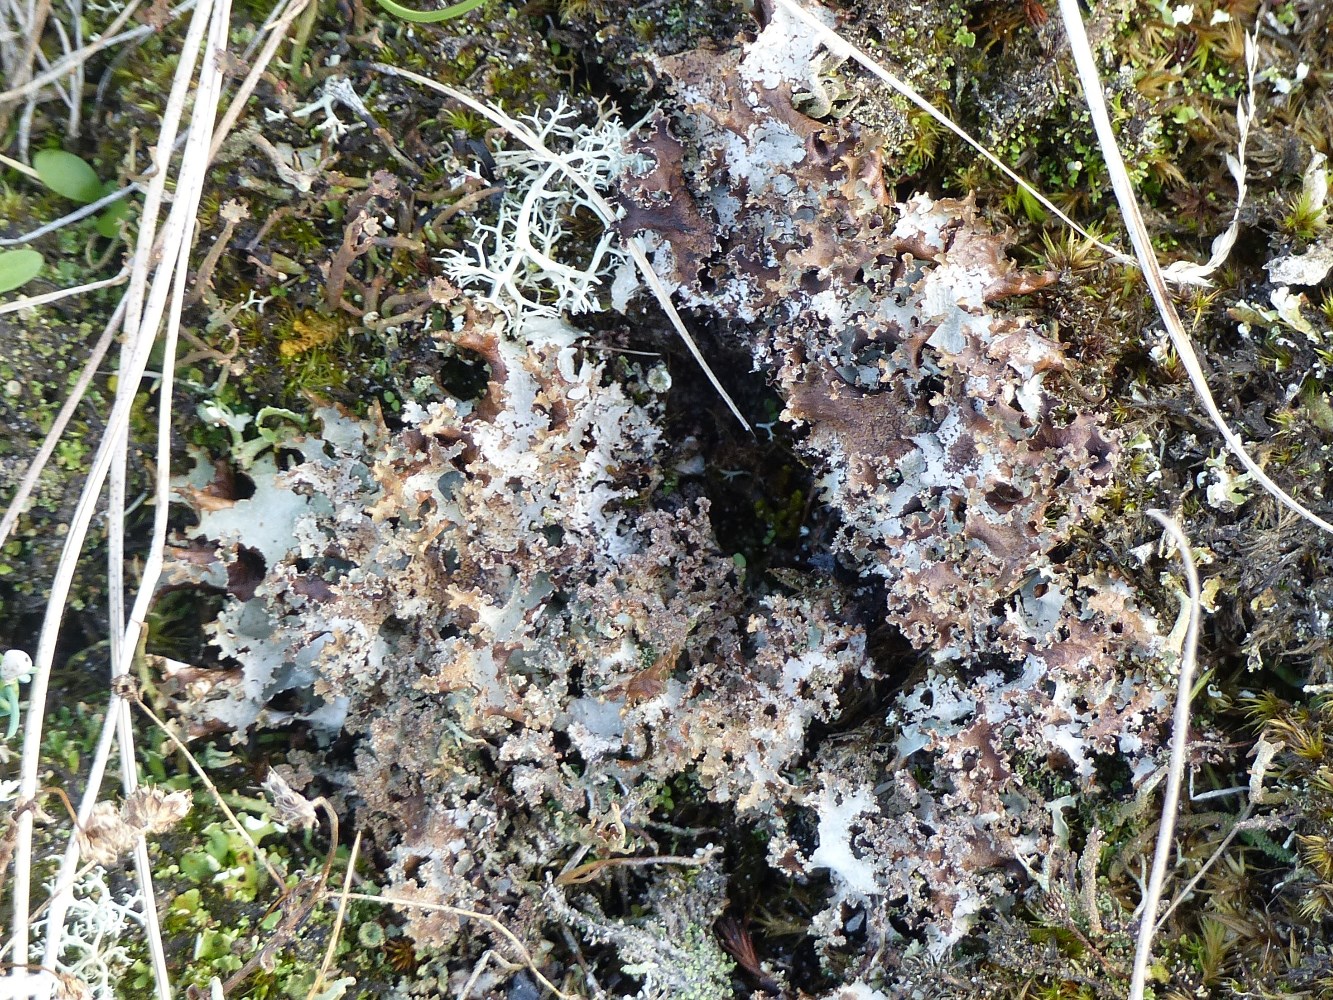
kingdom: Fungi
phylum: Ascomycota
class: Lecanoromycetes
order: Lecanorales
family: Parmeliaceae
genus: Platismatia
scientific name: Platismatia glauca
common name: blågrå papirlav
